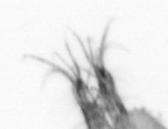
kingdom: Animalia
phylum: Arthropoda
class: Maxillopoda
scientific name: Maxillopoda
